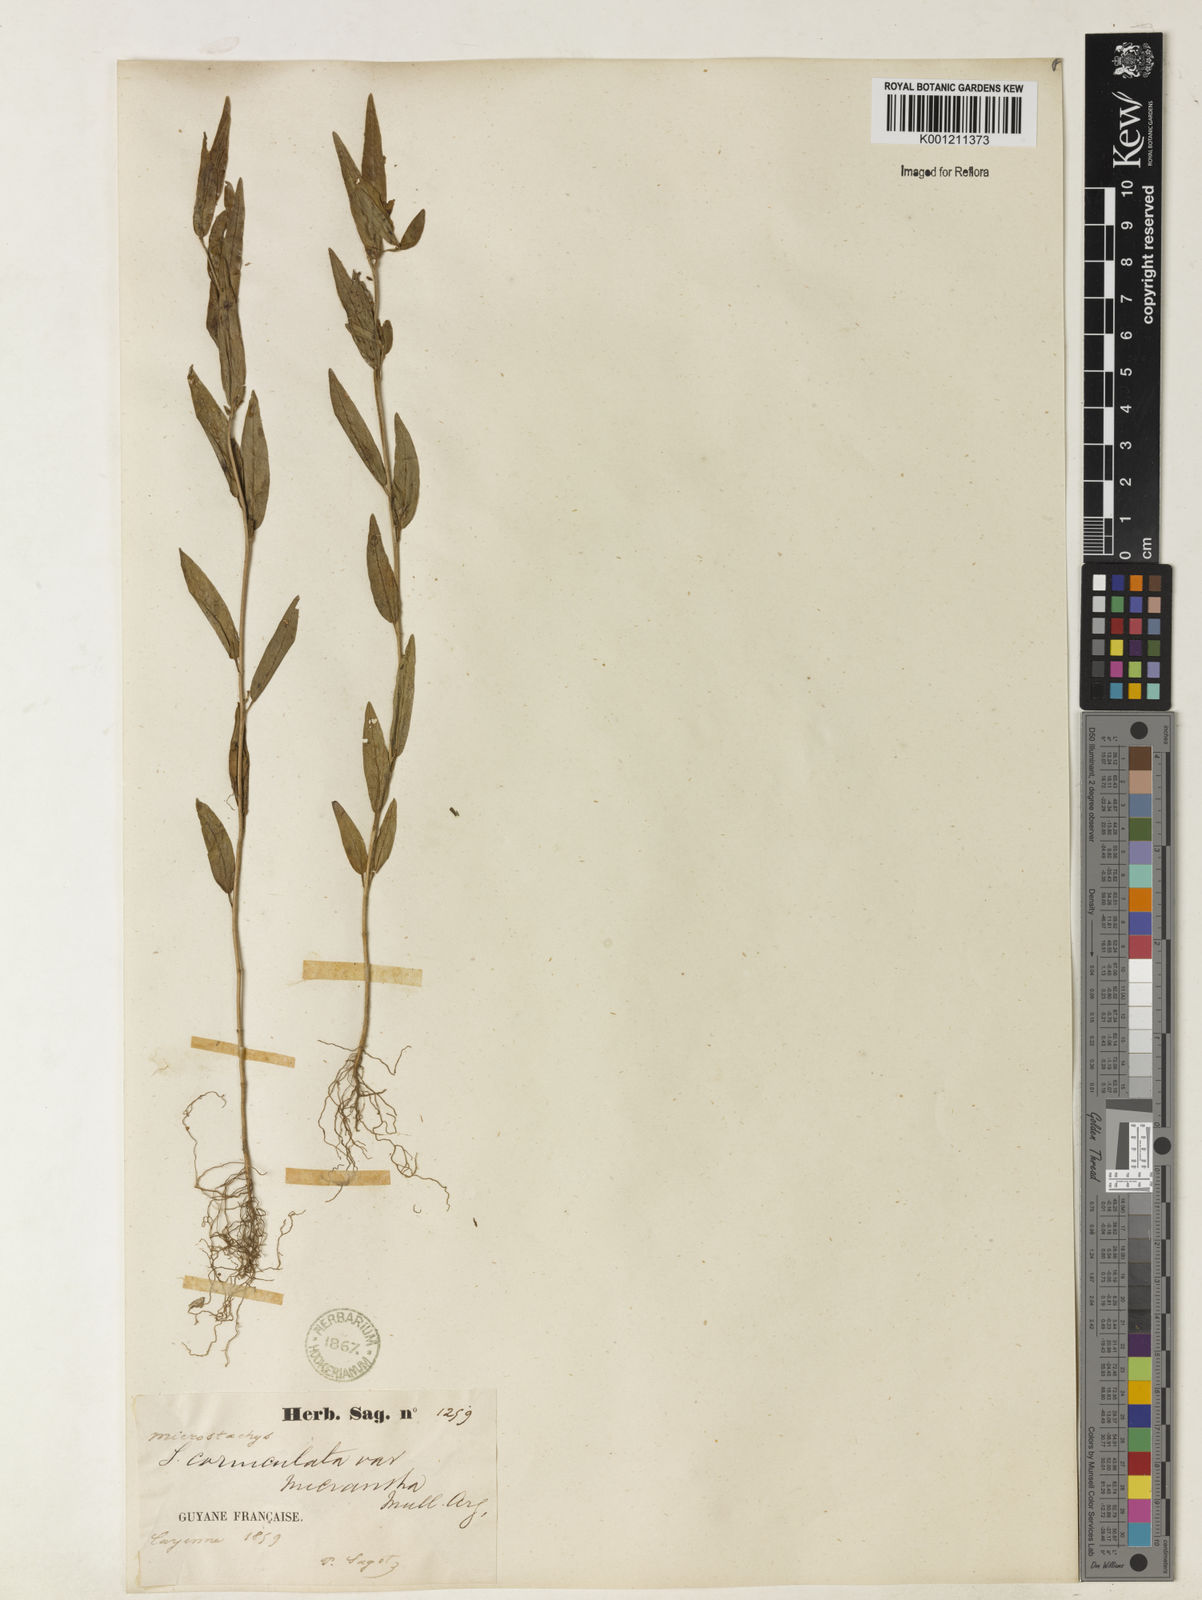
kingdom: Plantae
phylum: Tracheophyta
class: Magnoliopsida
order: Malpighiales
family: Euphorbiaceae
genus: Microstachys
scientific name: Microstachys corniculata
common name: Hato tejas
